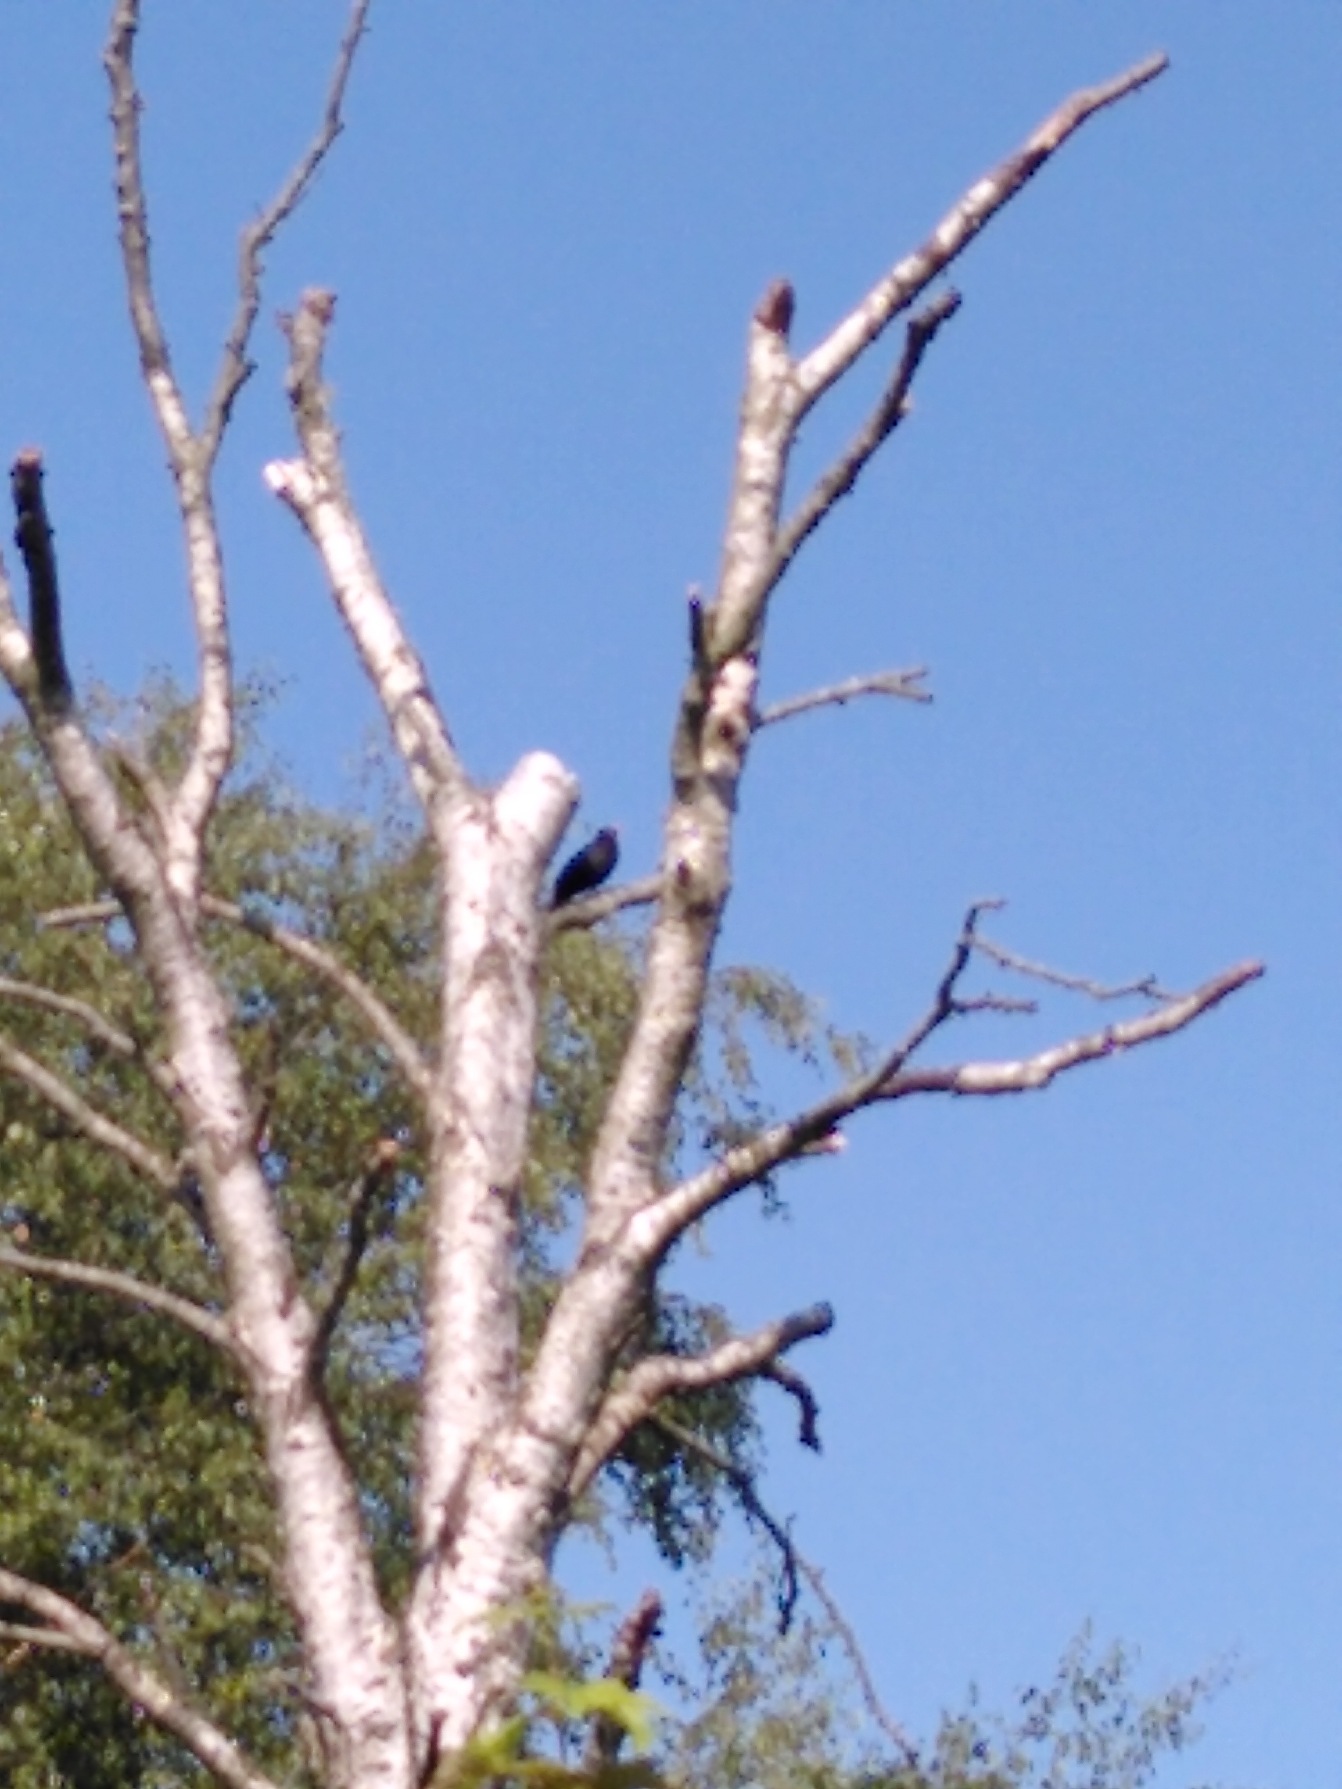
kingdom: Animalia
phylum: Chordata
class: Aves
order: Passeriformes
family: Turdidae
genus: Turdus
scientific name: Turdus merula
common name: Solsort
